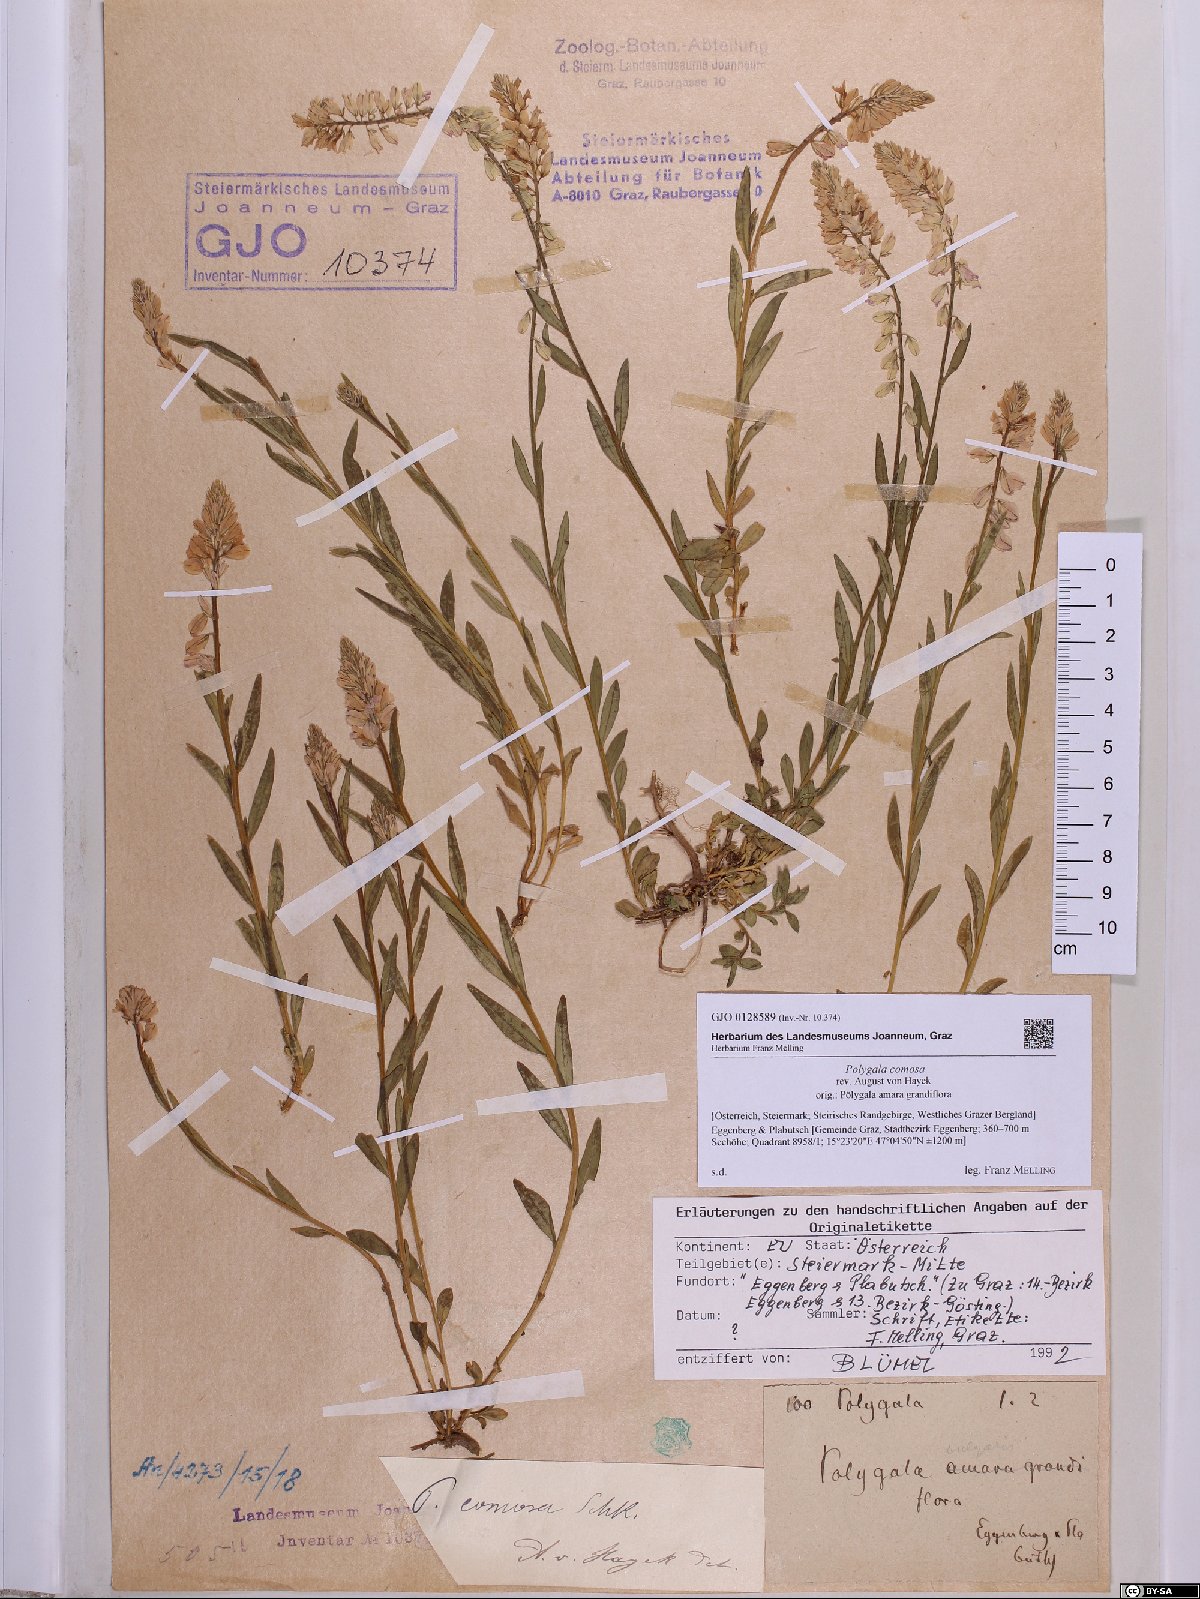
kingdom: Plantae
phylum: Tracheophyta
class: Magnoliopsida
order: Fabales
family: Polygalaceae
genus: Polygala
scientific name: Polygala comosa
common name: Tufted milkwort
